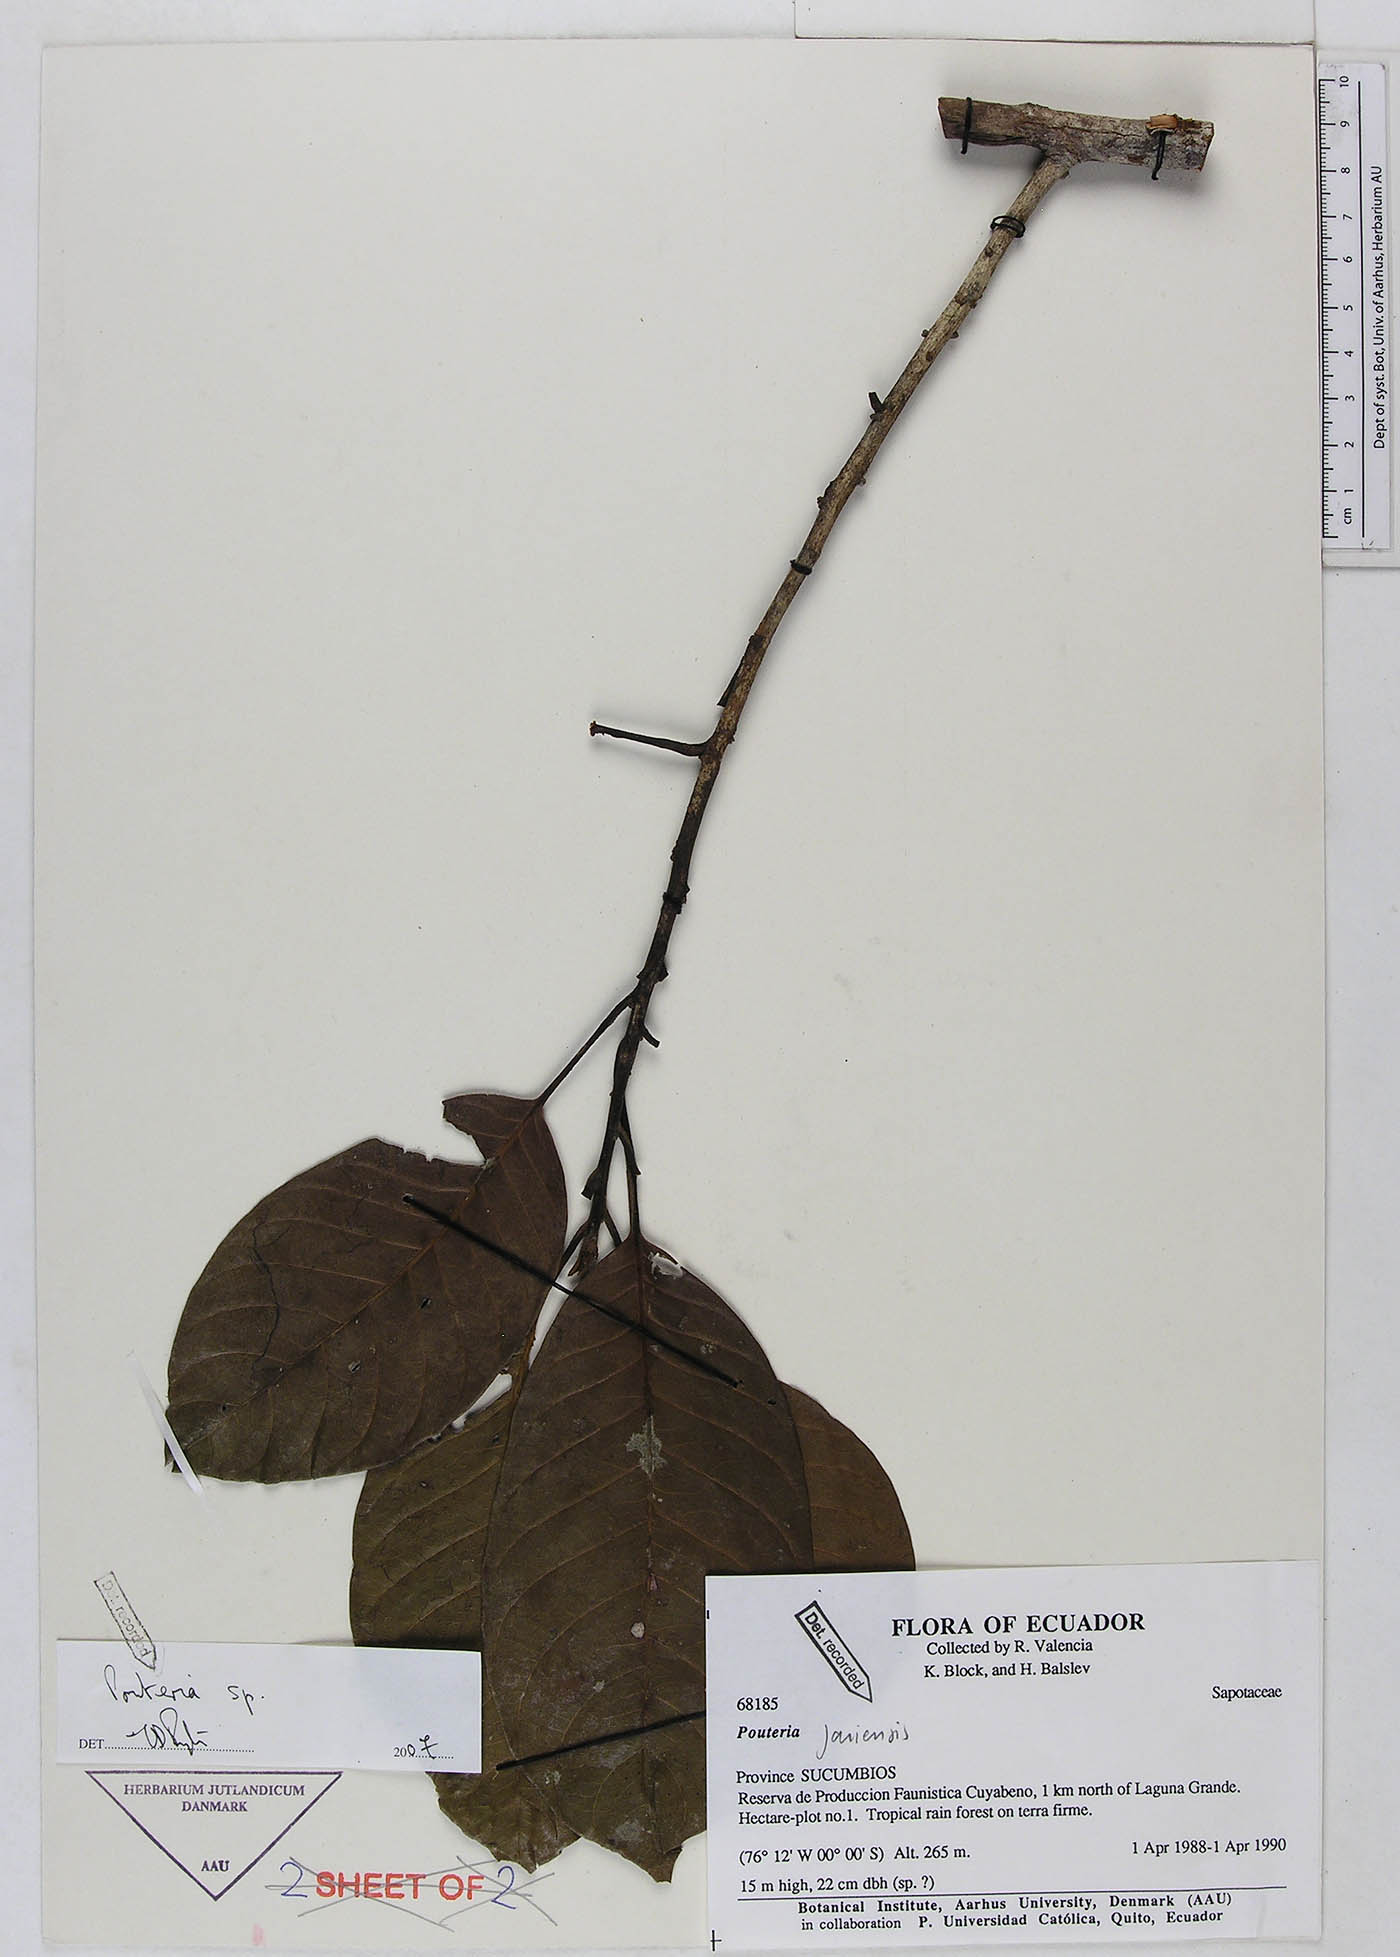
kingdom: Plantae
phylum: Tracheophyta
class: Magnoliopsida
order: Ericales
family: Sapotaceae
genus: Pouteria
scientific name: Pouteria
